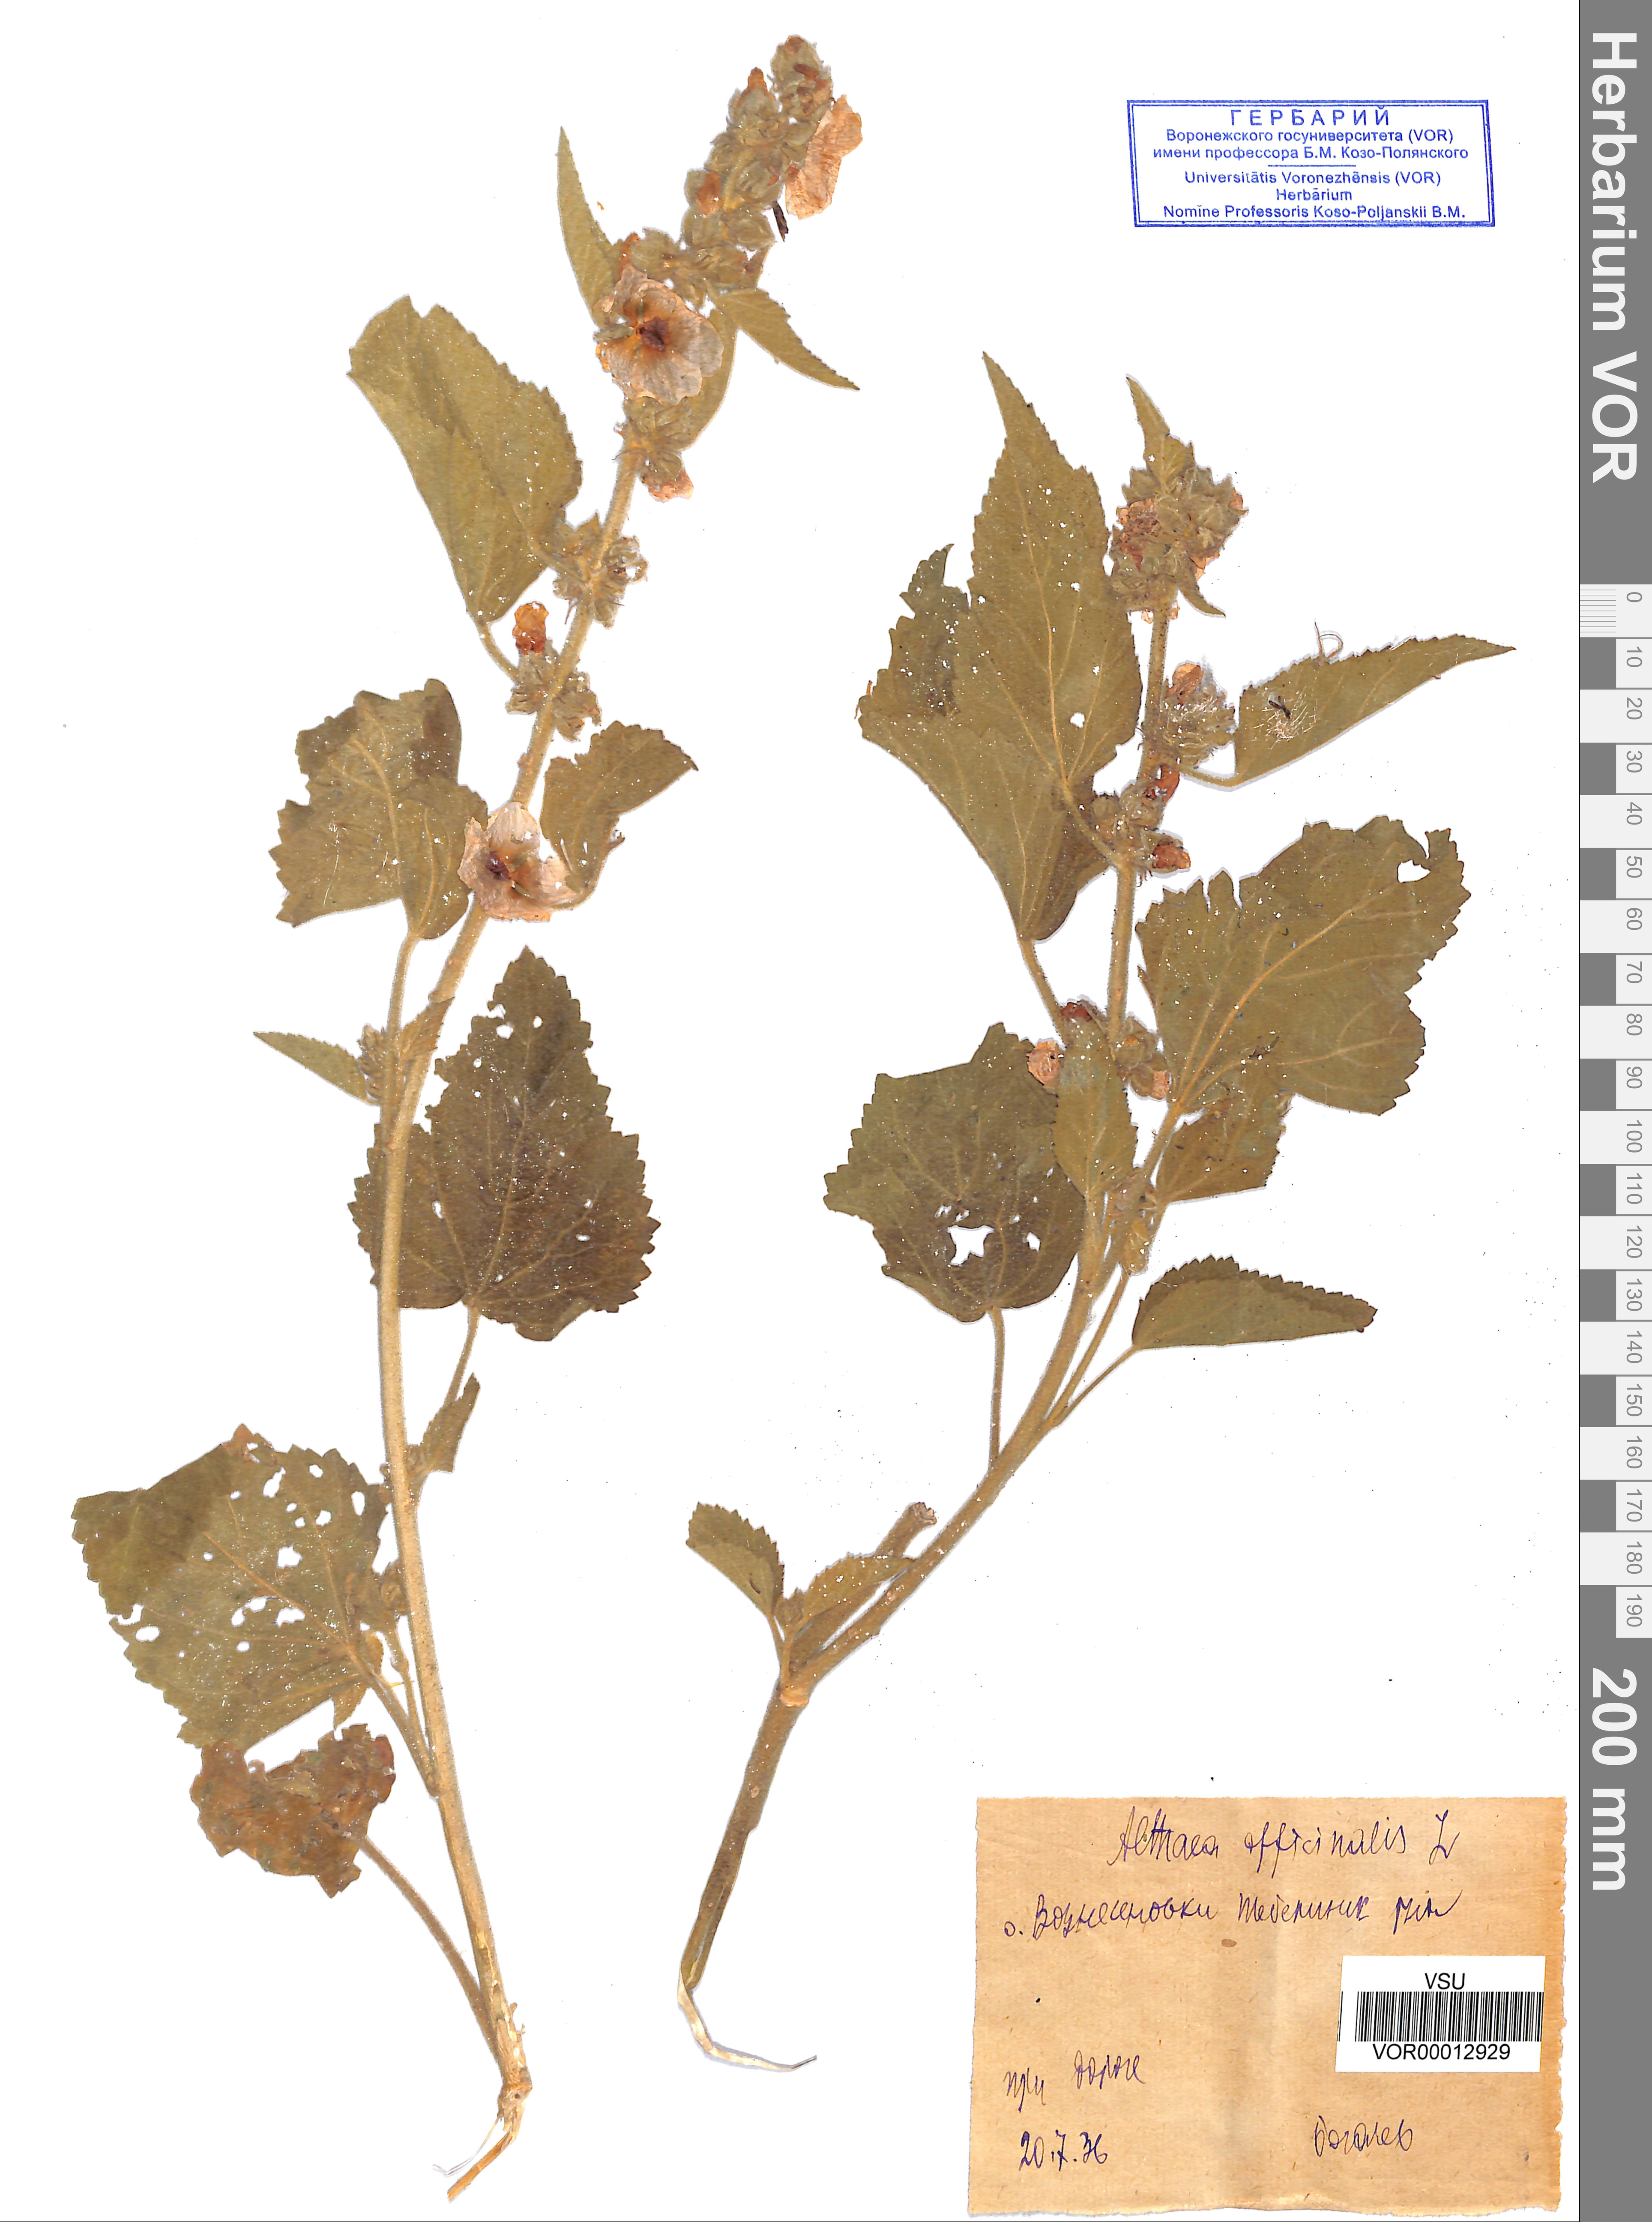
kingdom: Plantae
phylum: Tracheophyta
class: Magnoliopsida
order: Malvales
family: Malvaceae
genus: Althaea
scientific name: Althaea officinalis
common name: Marsh-mallow
